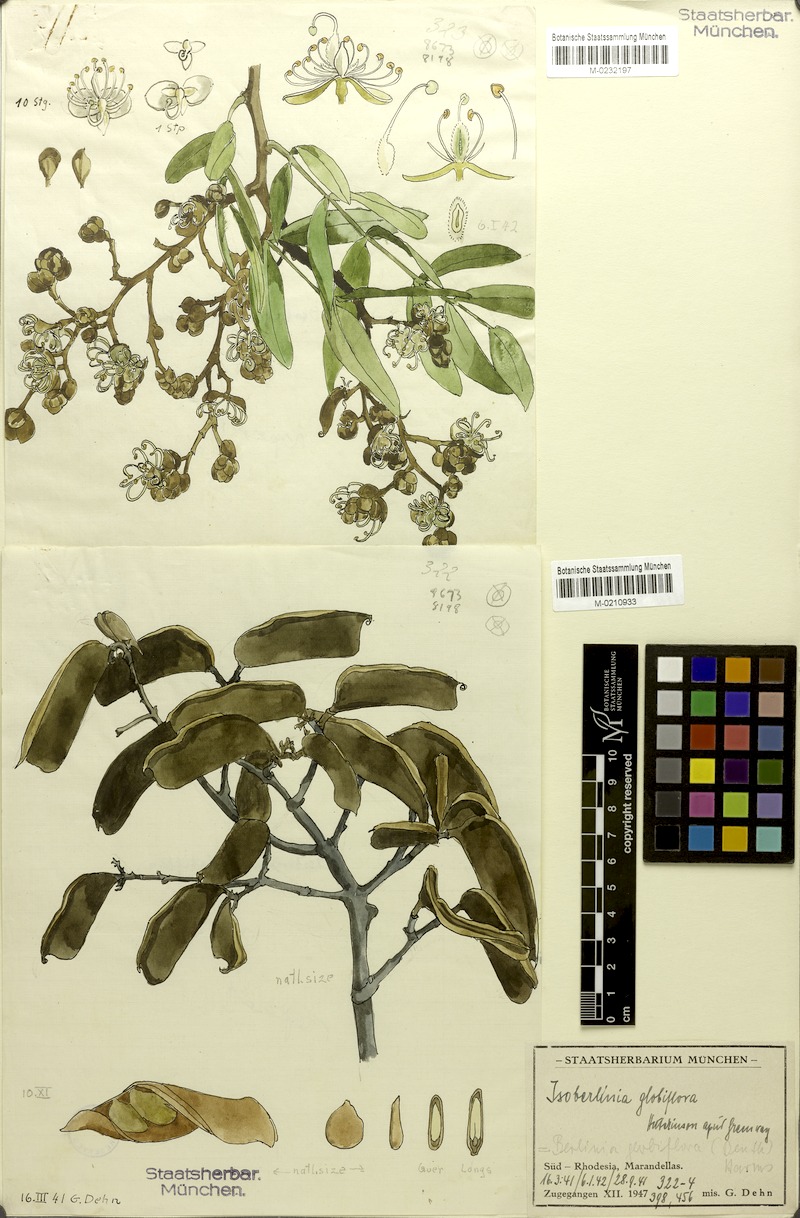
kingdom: Plantae
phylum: Tracheophyta
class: Magnoliopsida
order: Fabales
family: Fabaceae
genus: Julbernardia
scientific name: Julbernardia globiflora
